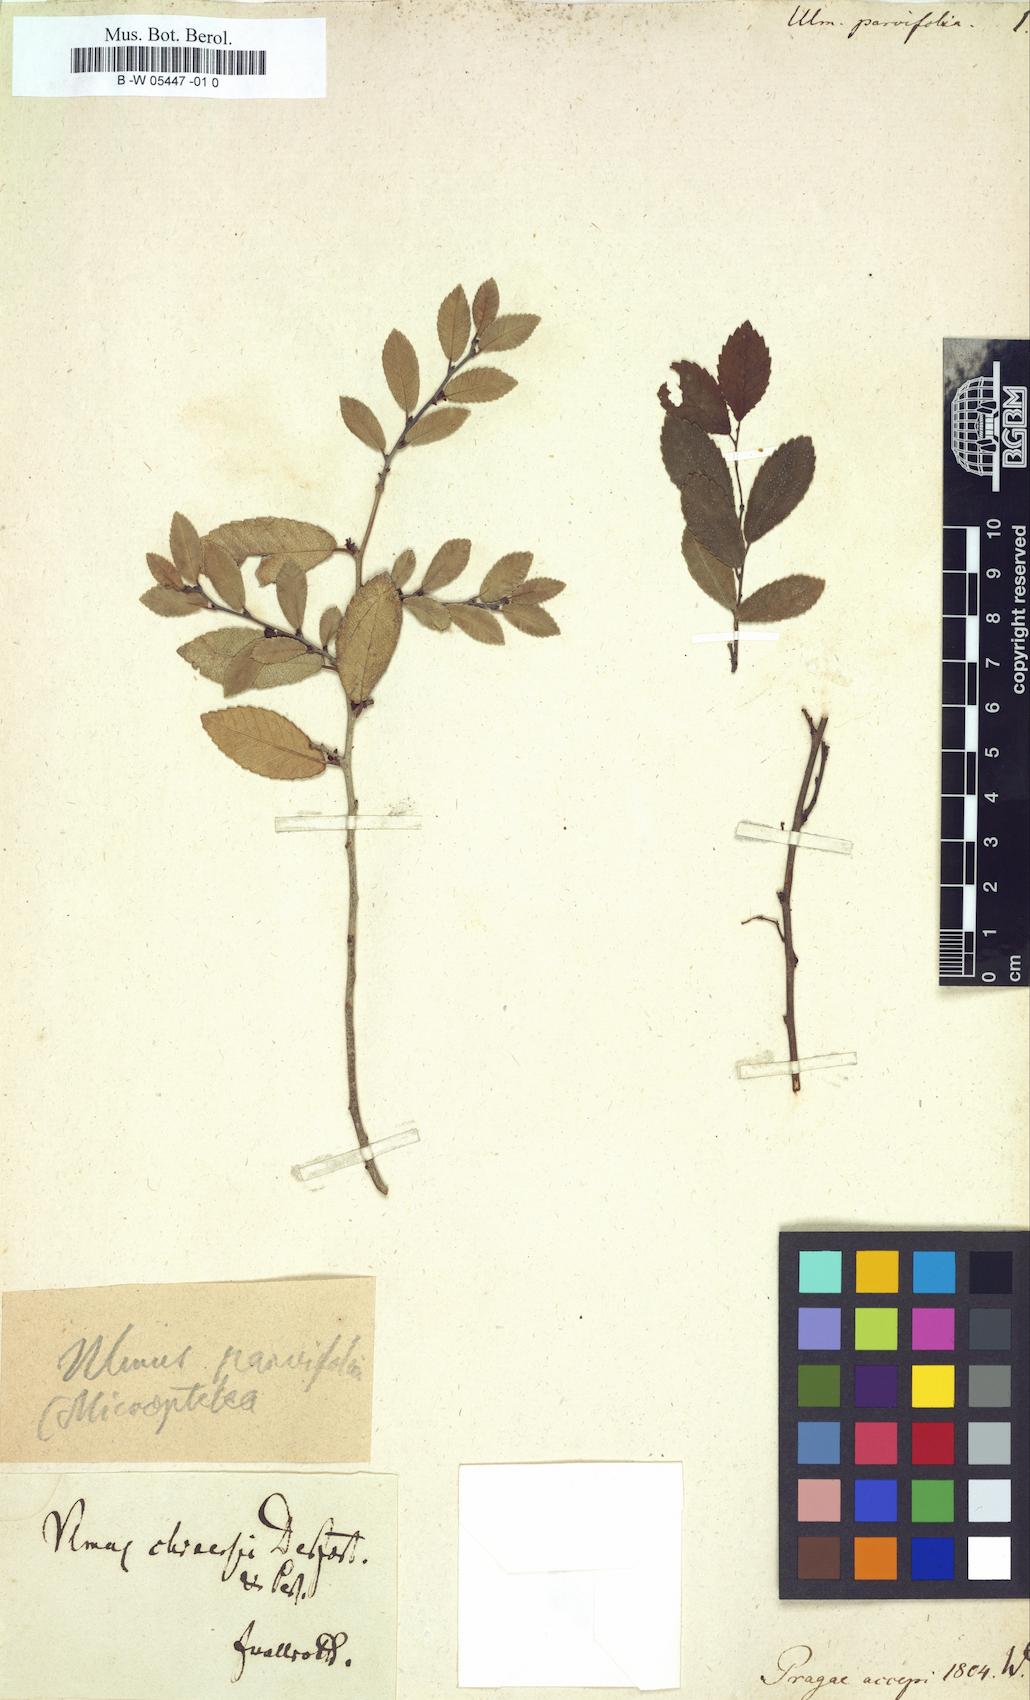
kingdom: Plantae
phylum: Tracheophyta
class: Magnoliopsida
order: Rosales
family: Ulmaceae
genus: Ulmus
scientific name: Ulmus parvifolia
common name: Chinese elm
